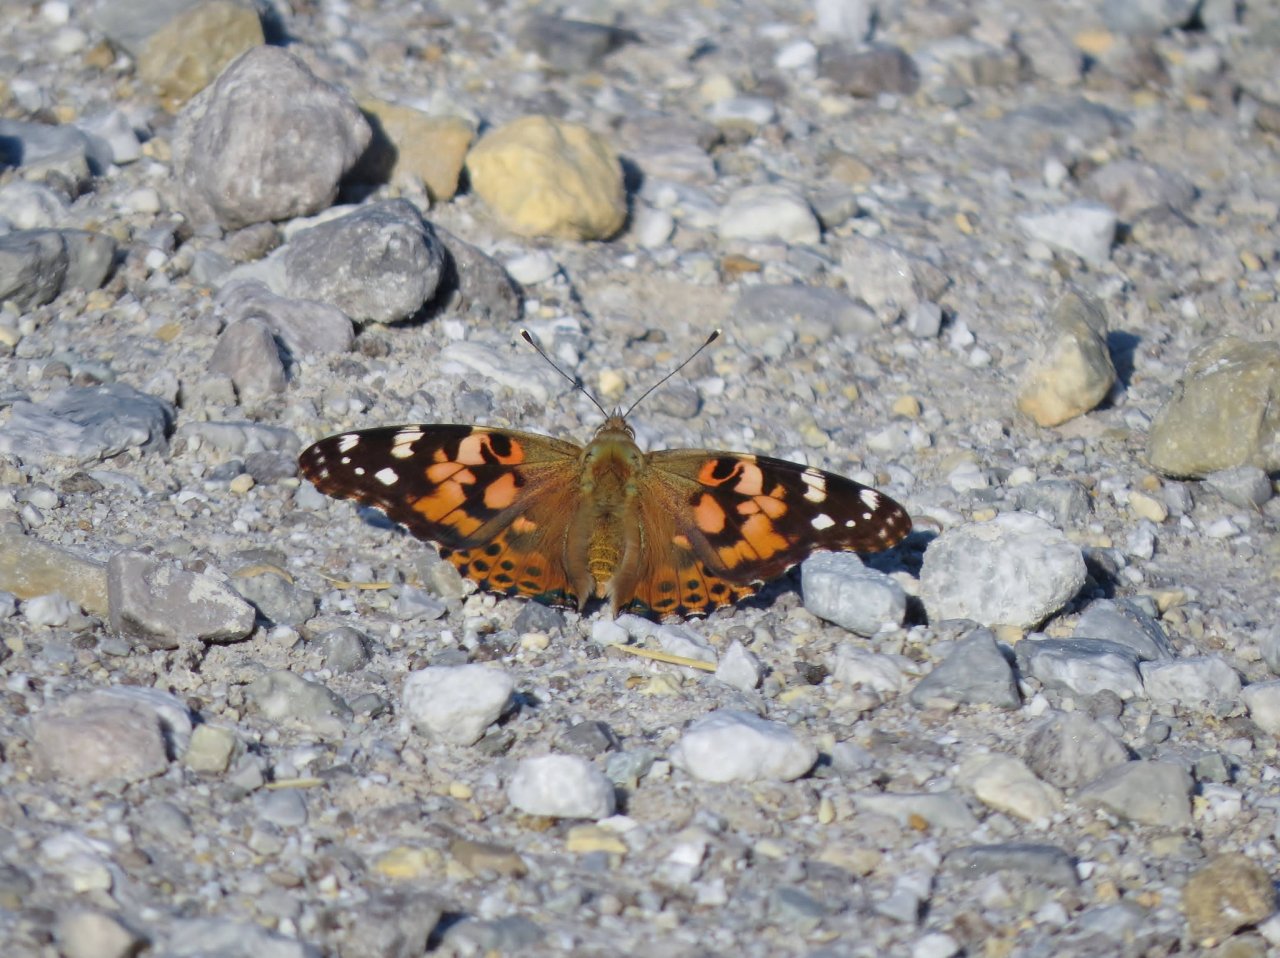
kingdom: Animalia
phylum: Arthropoda
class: Insecta
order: Lepidoptera
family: Nymphalidae
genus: Vanessa
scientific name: Vanessa cardui
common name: Painted Lady
